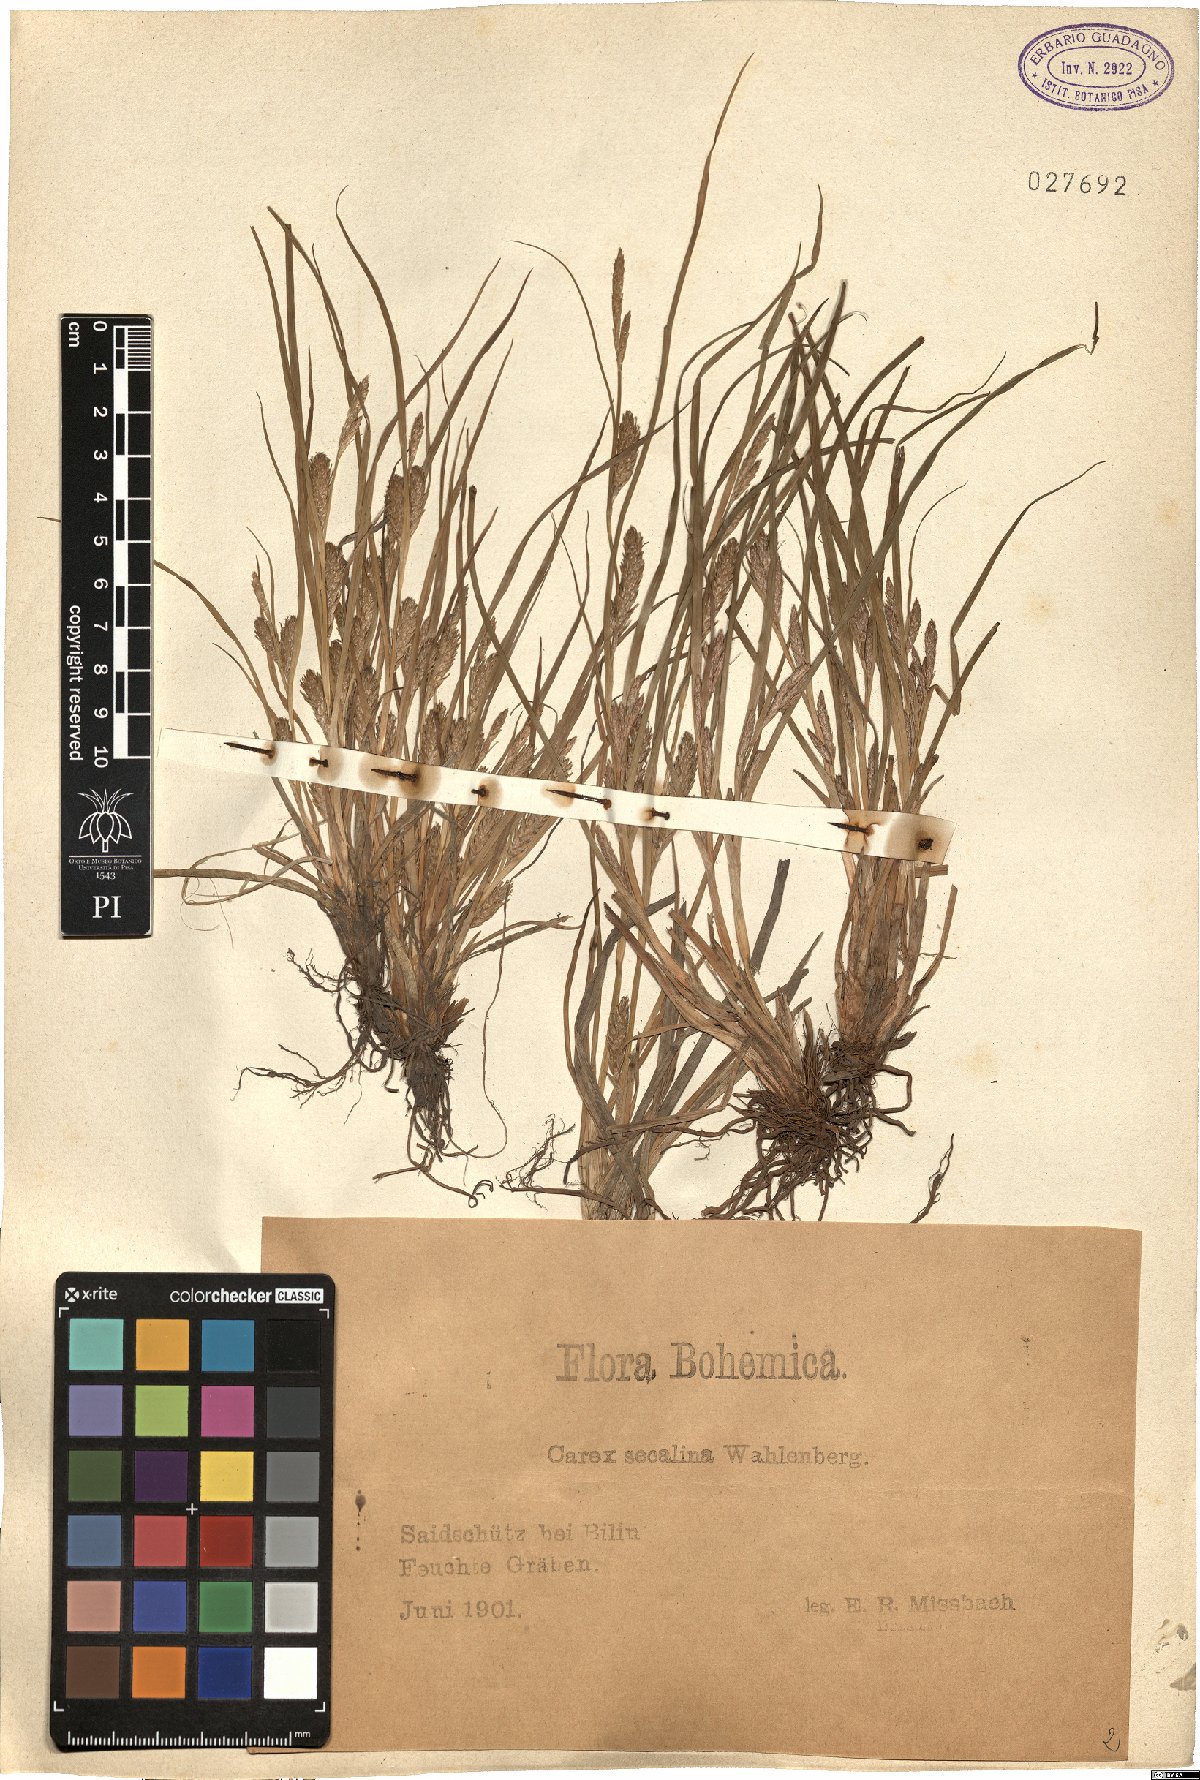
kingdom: Plantae
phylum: Tracheophyta
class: Liliopsida
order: Poales
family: Cyperaceae
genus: Carex
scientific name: Carex secalina
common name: Rye sedge
